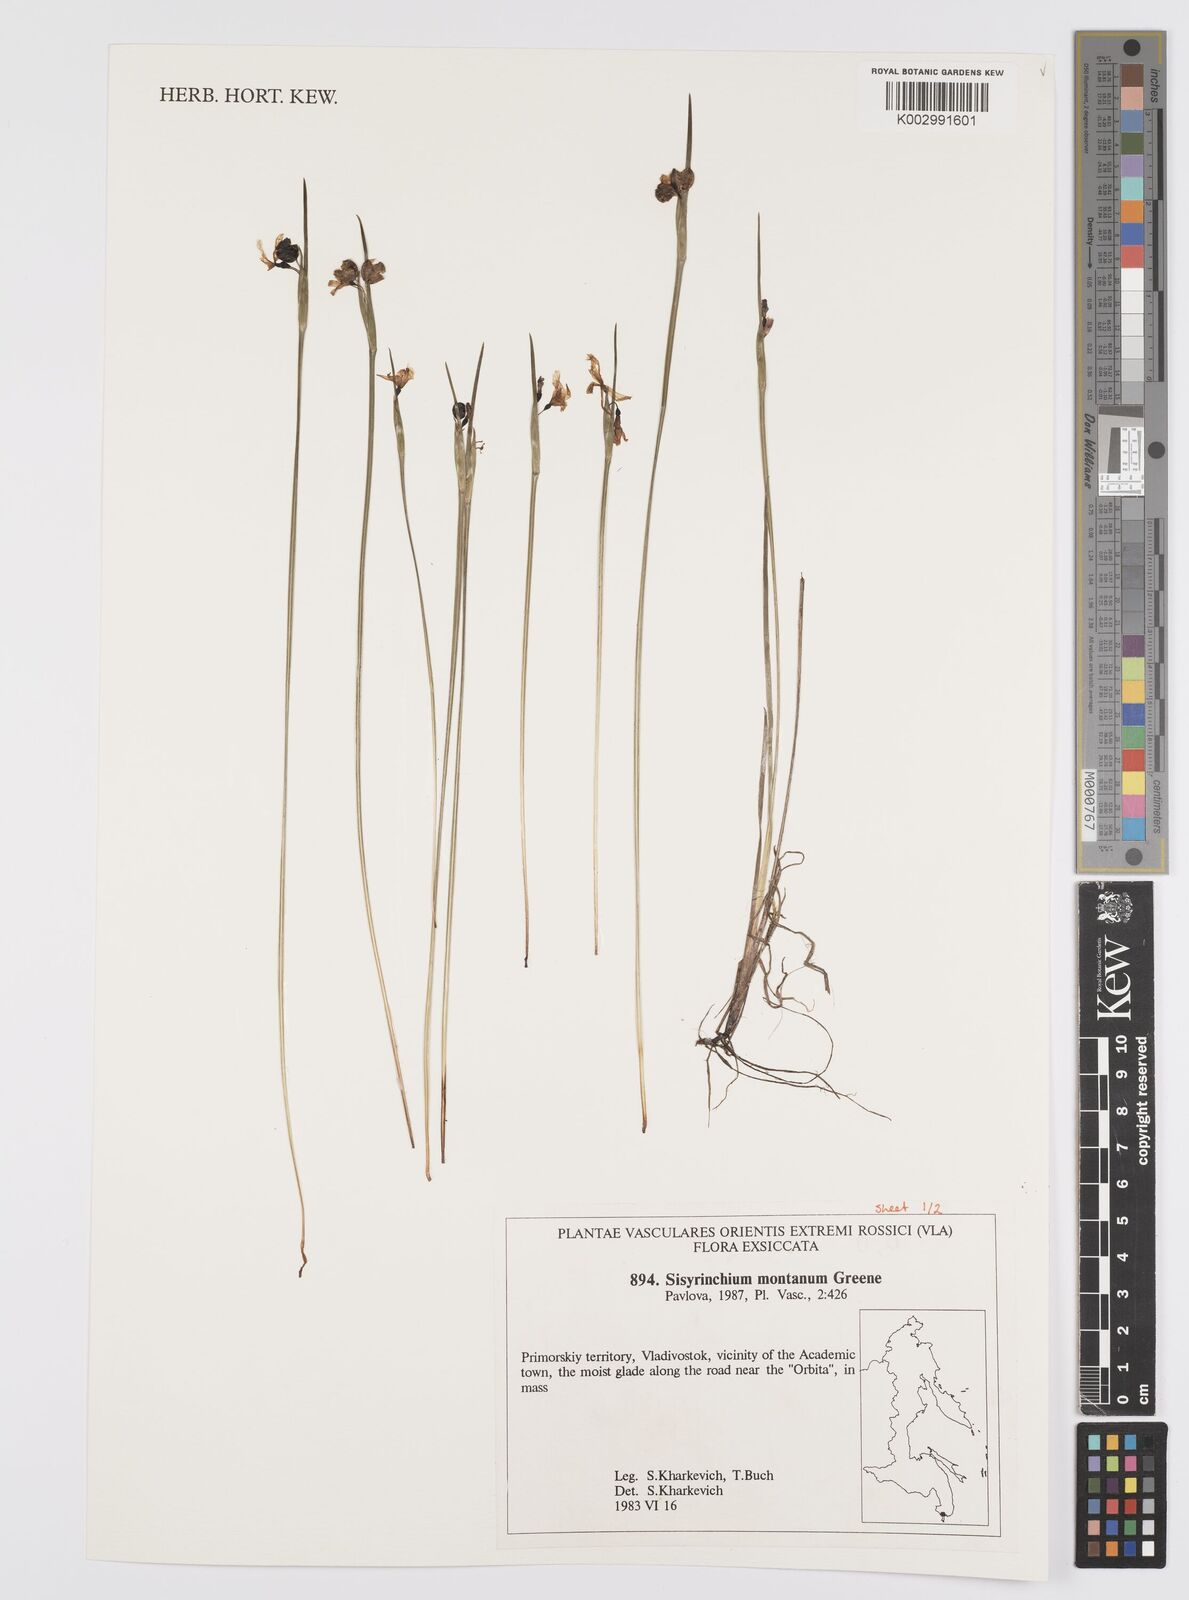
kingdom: Plantae
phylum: Tracheophyta
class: Liliopsida
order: Asparagales
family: Iridaceae
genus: Sisyrinchium
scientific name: Sisyrinchium montanum
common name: American blue-eyed-grass
